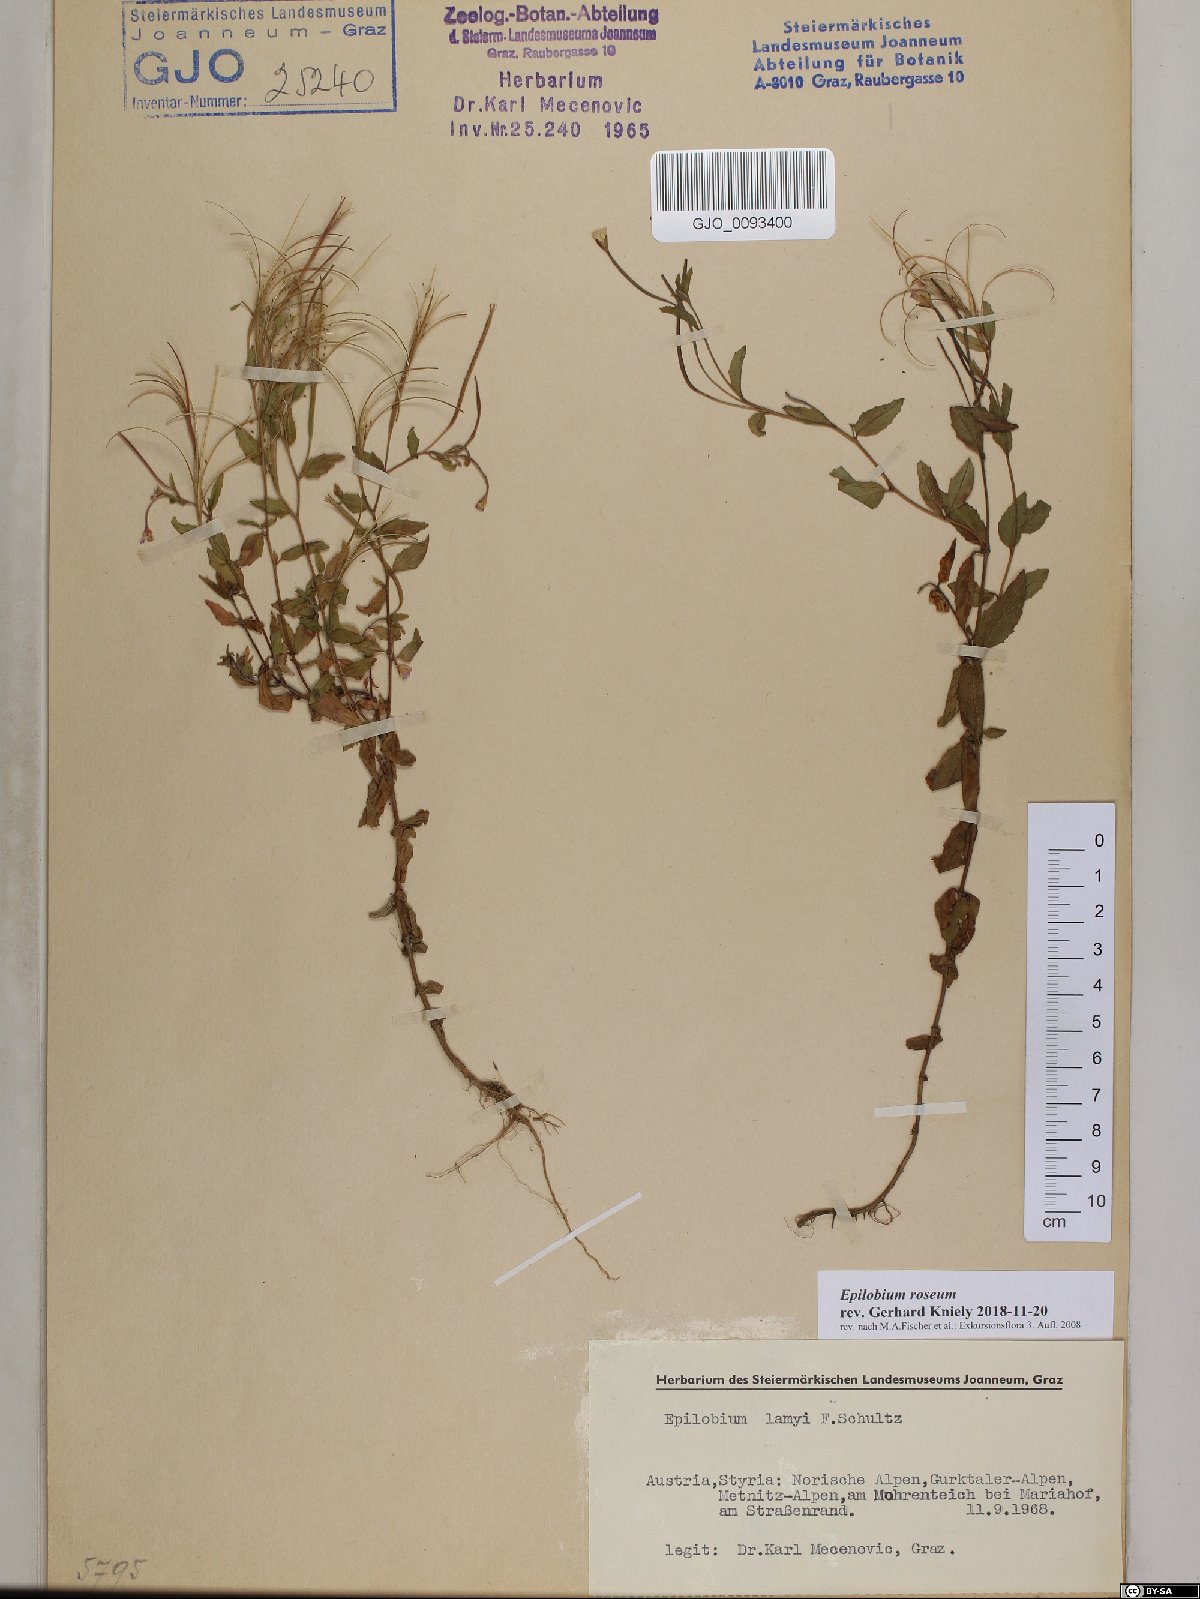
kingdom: Plantae
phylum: Tracheophyta
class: Magnoliopsida
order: Myrtales
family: Onagraceae
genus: Epilobium
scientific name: Epilobium roseum
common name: Pale willowherb
